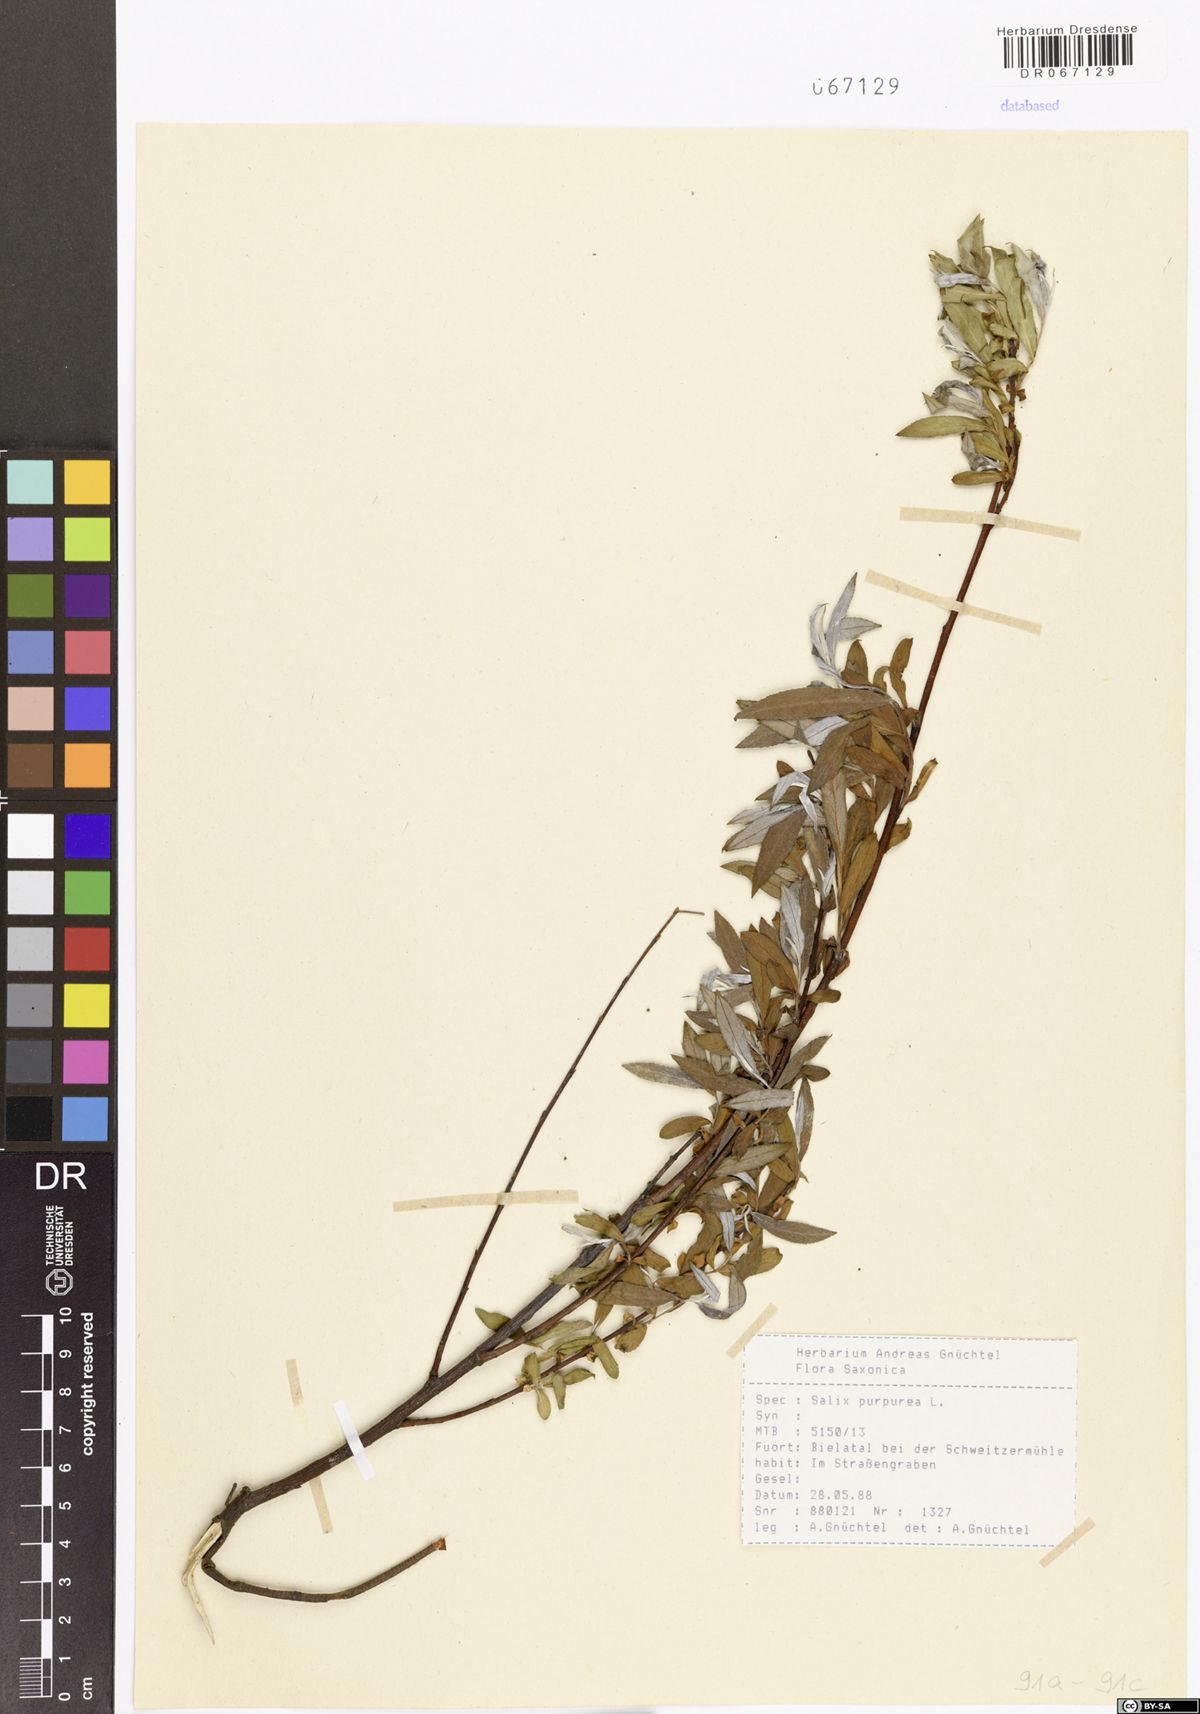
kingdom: Plantae
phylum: Tracheophyta
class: Magnoliopsida
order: Malpighiales
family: Salicaceae
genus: Salix
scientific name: Salix purpurea
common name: Purple willow
